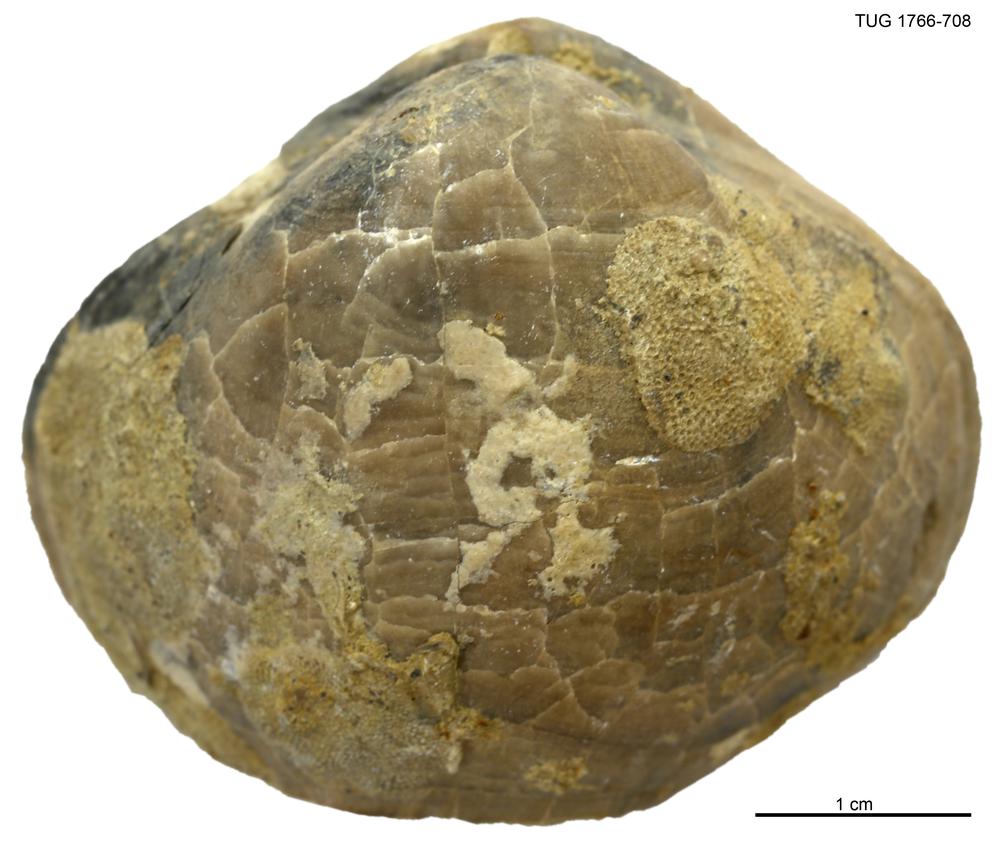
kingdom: Animalia
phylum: Brachiopoda
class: Rhynchonellata
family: Porambonitidae
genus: Porambonites
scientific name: Porambonites
